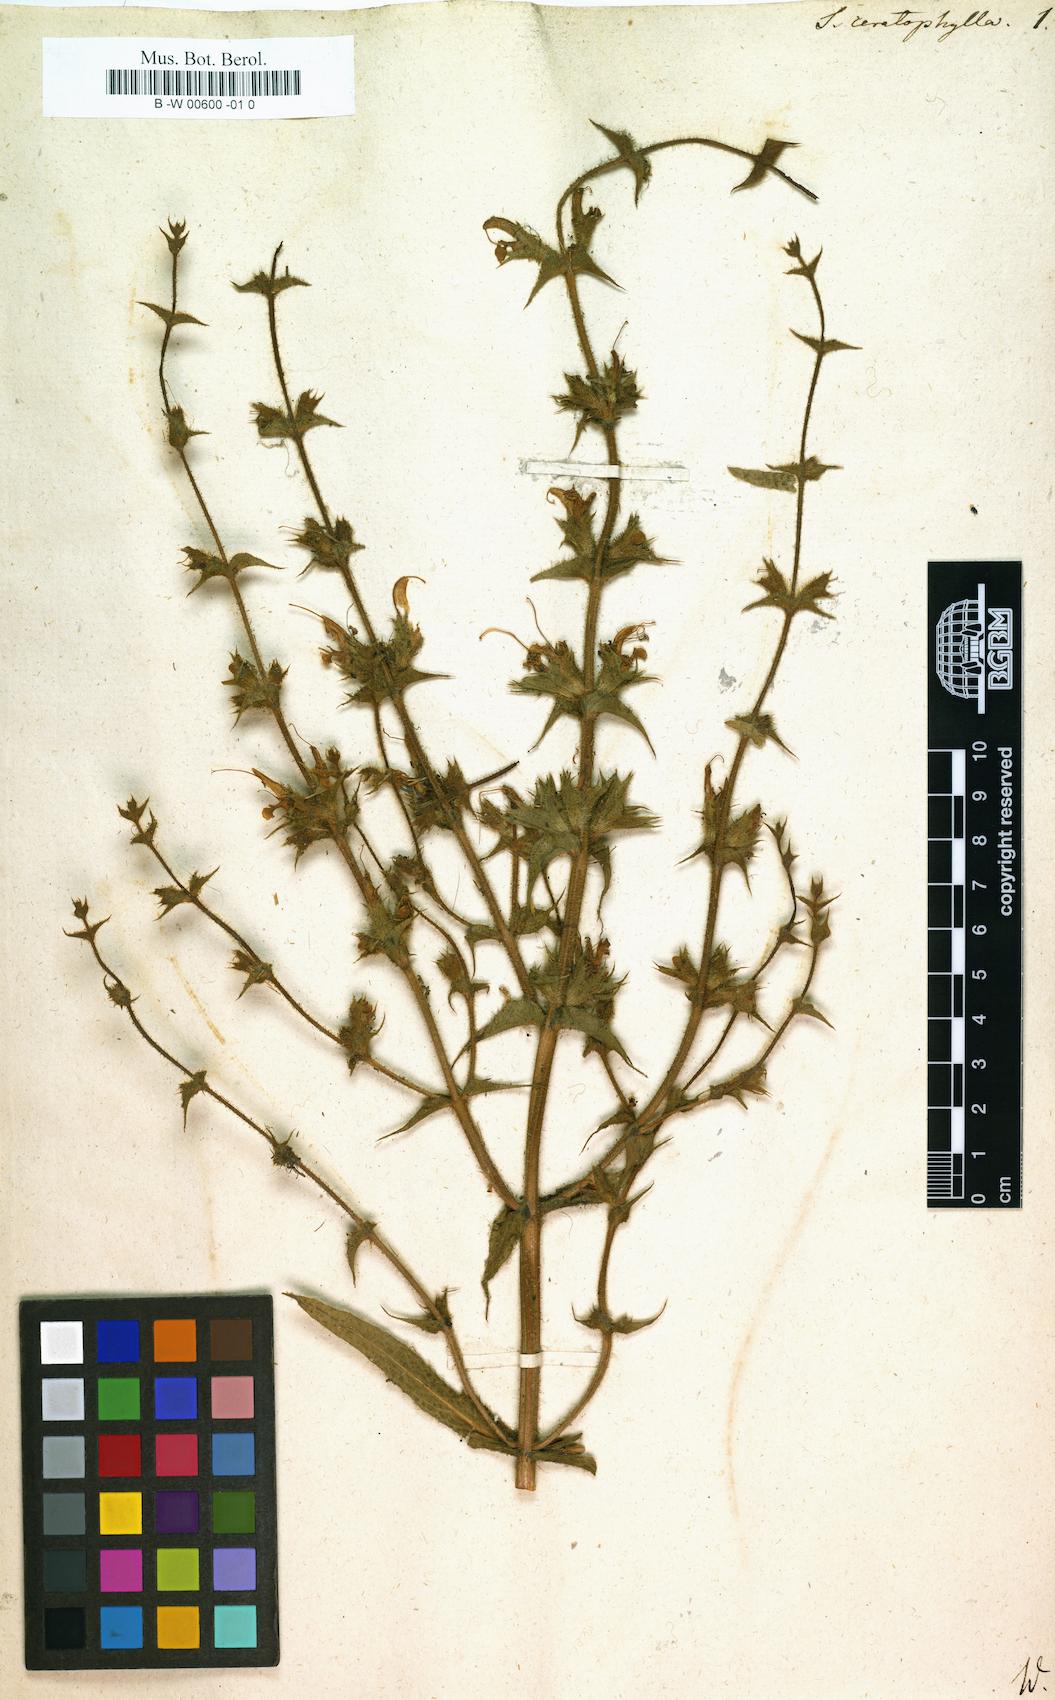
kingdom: Plantae
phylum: Tracheophyta
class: Magnoliopsida
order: Lamiales
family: Lamiaceae
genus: Salvia
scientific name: Salvia ceratophylla
